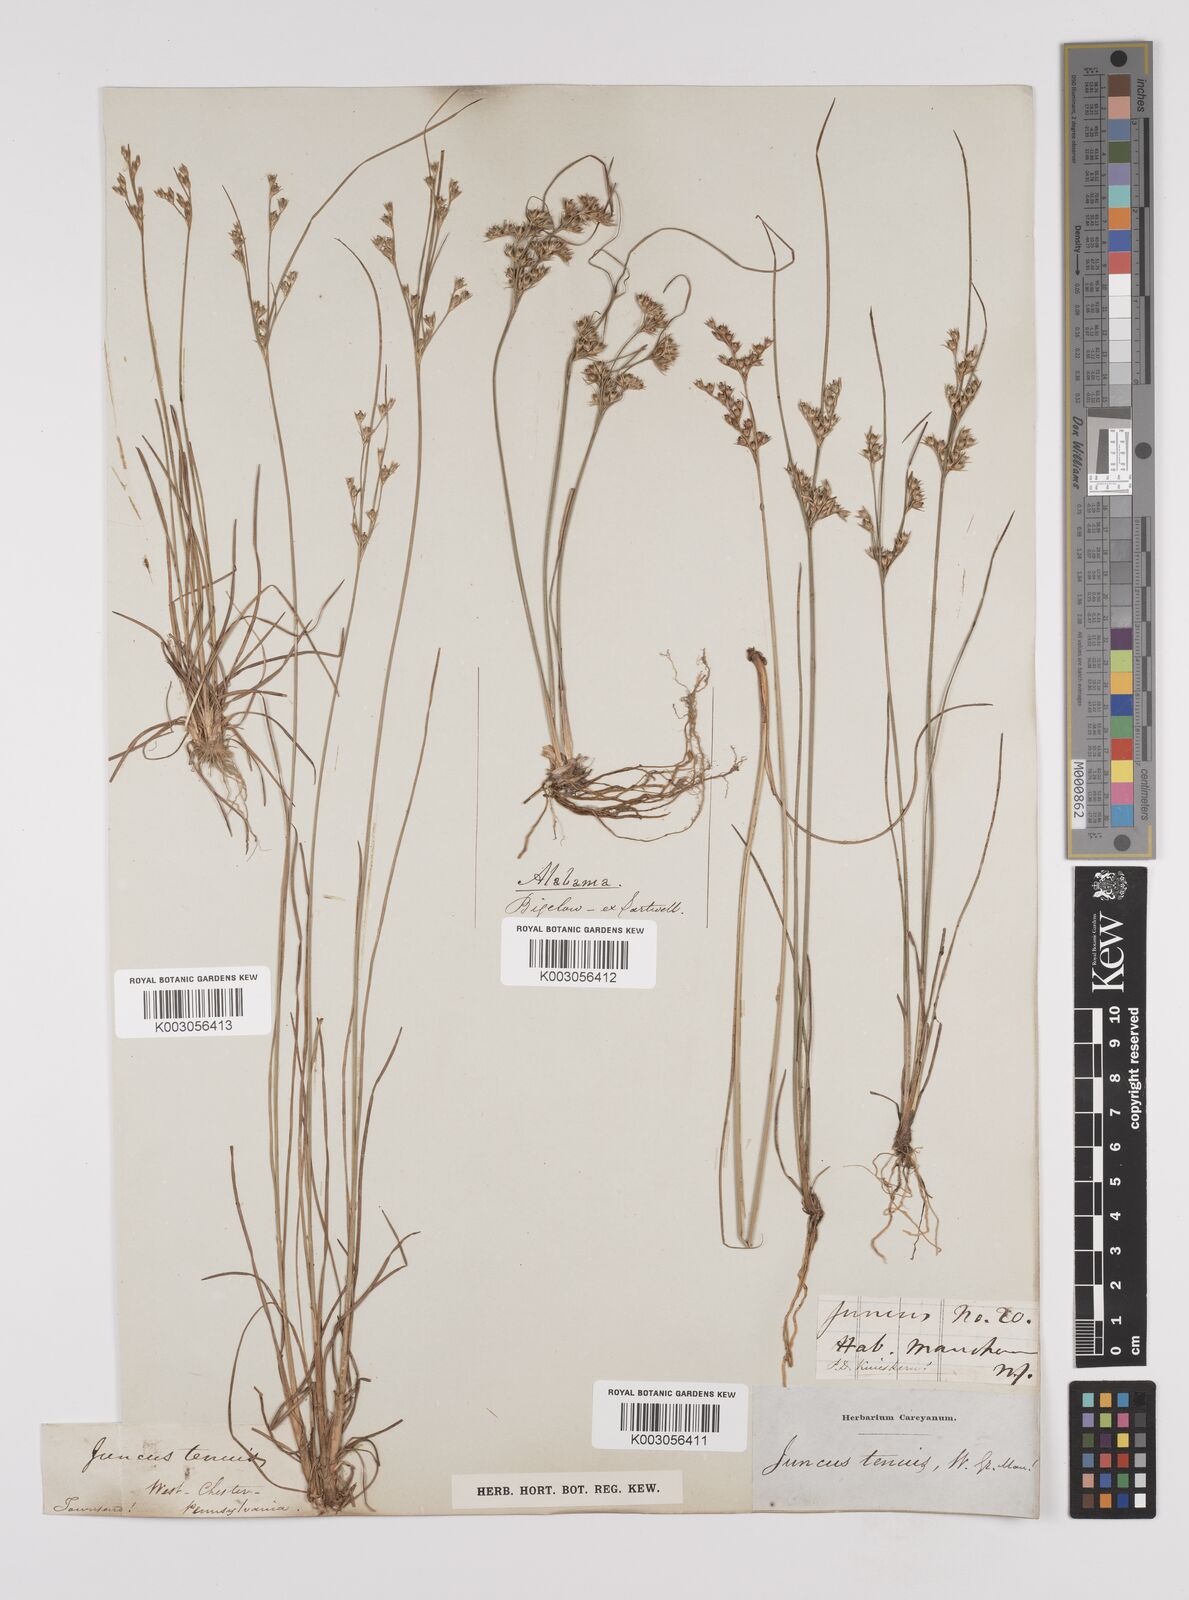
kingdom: Plantae
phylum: Tracheophyta
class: Liliopsida
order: Poales
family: Juncaceae
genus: Juncus
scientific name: Juncus tenuis
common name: Slender rush
